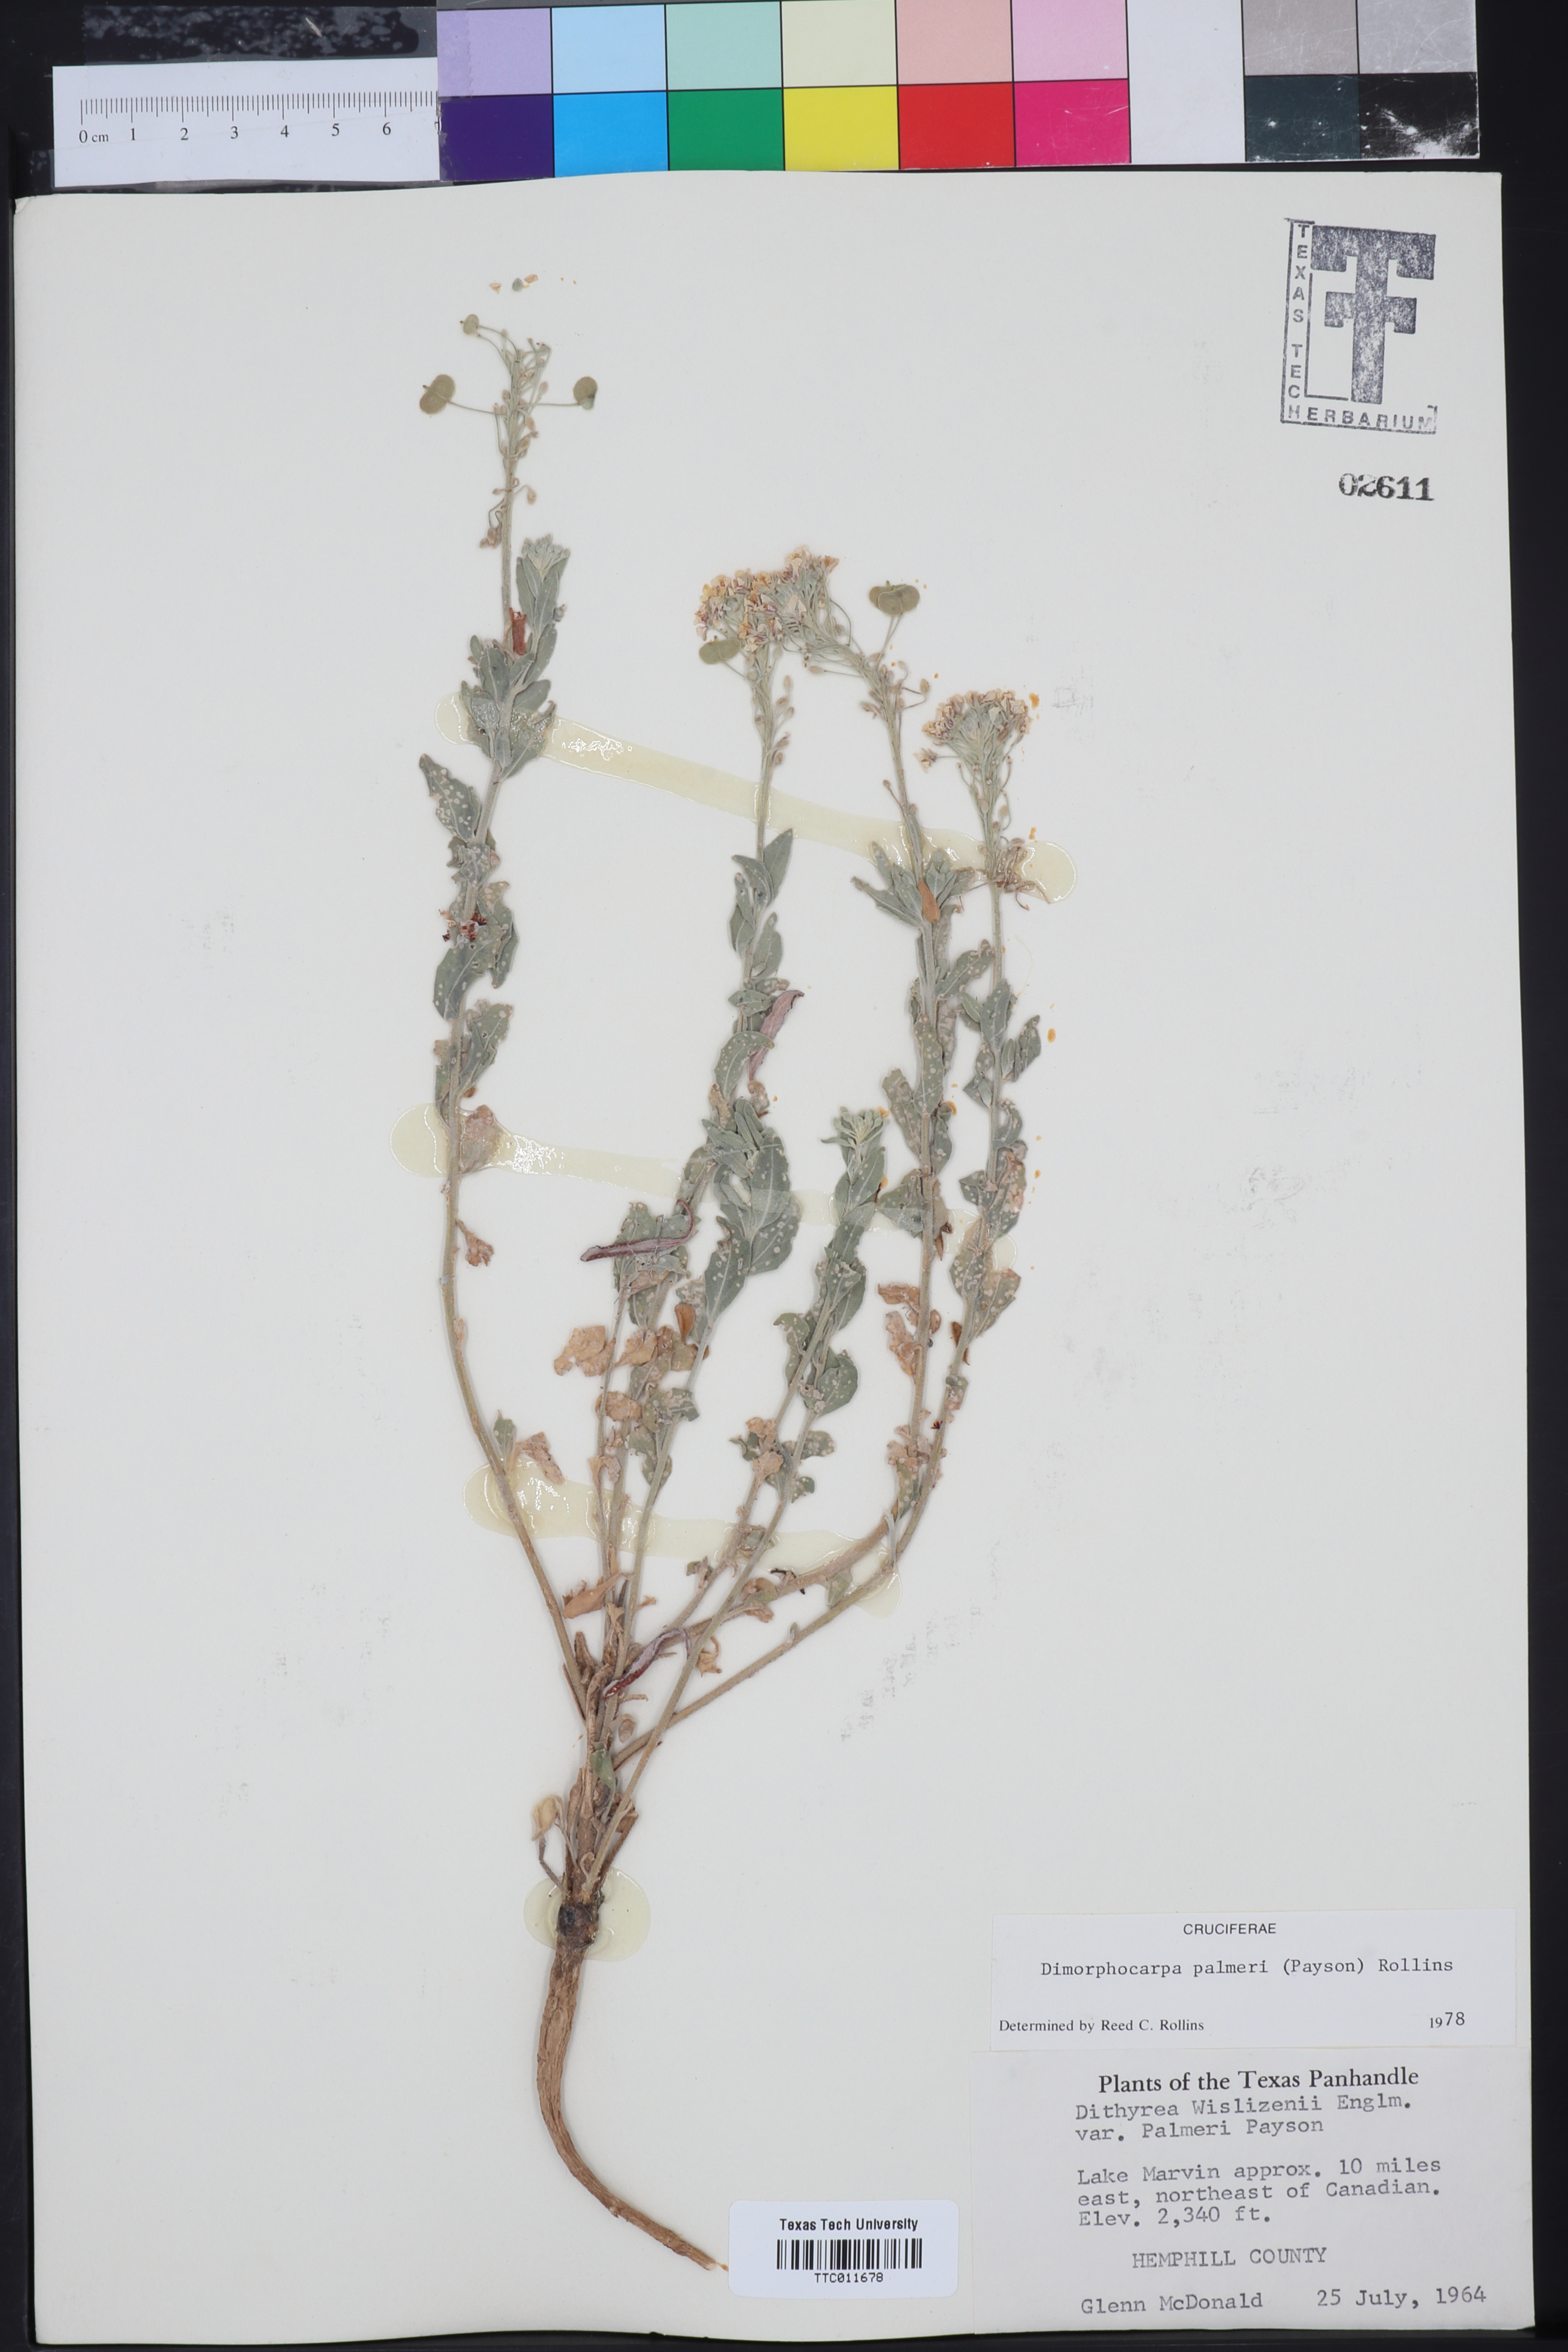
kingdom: Plantae
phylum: Tracheophyta
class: Magnoliopsida
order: Brassicales
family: Brassicaceae
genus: Dimorphocarpa
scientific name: Dimorphocarpa candicans
